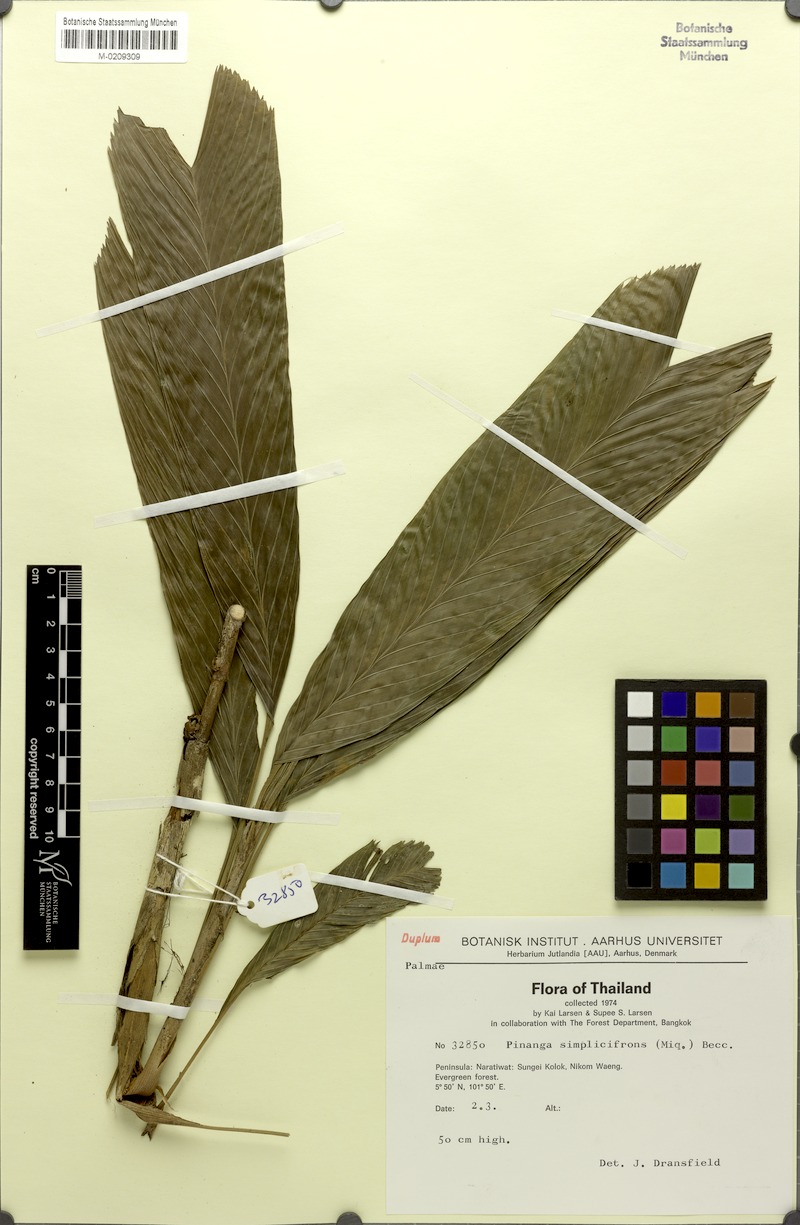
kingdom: Plantae
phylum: Tracheophyta
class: Liliopsida
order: Arecales
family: Arecaceae
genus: Pinanga
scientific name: Pinanga simplicifrons
